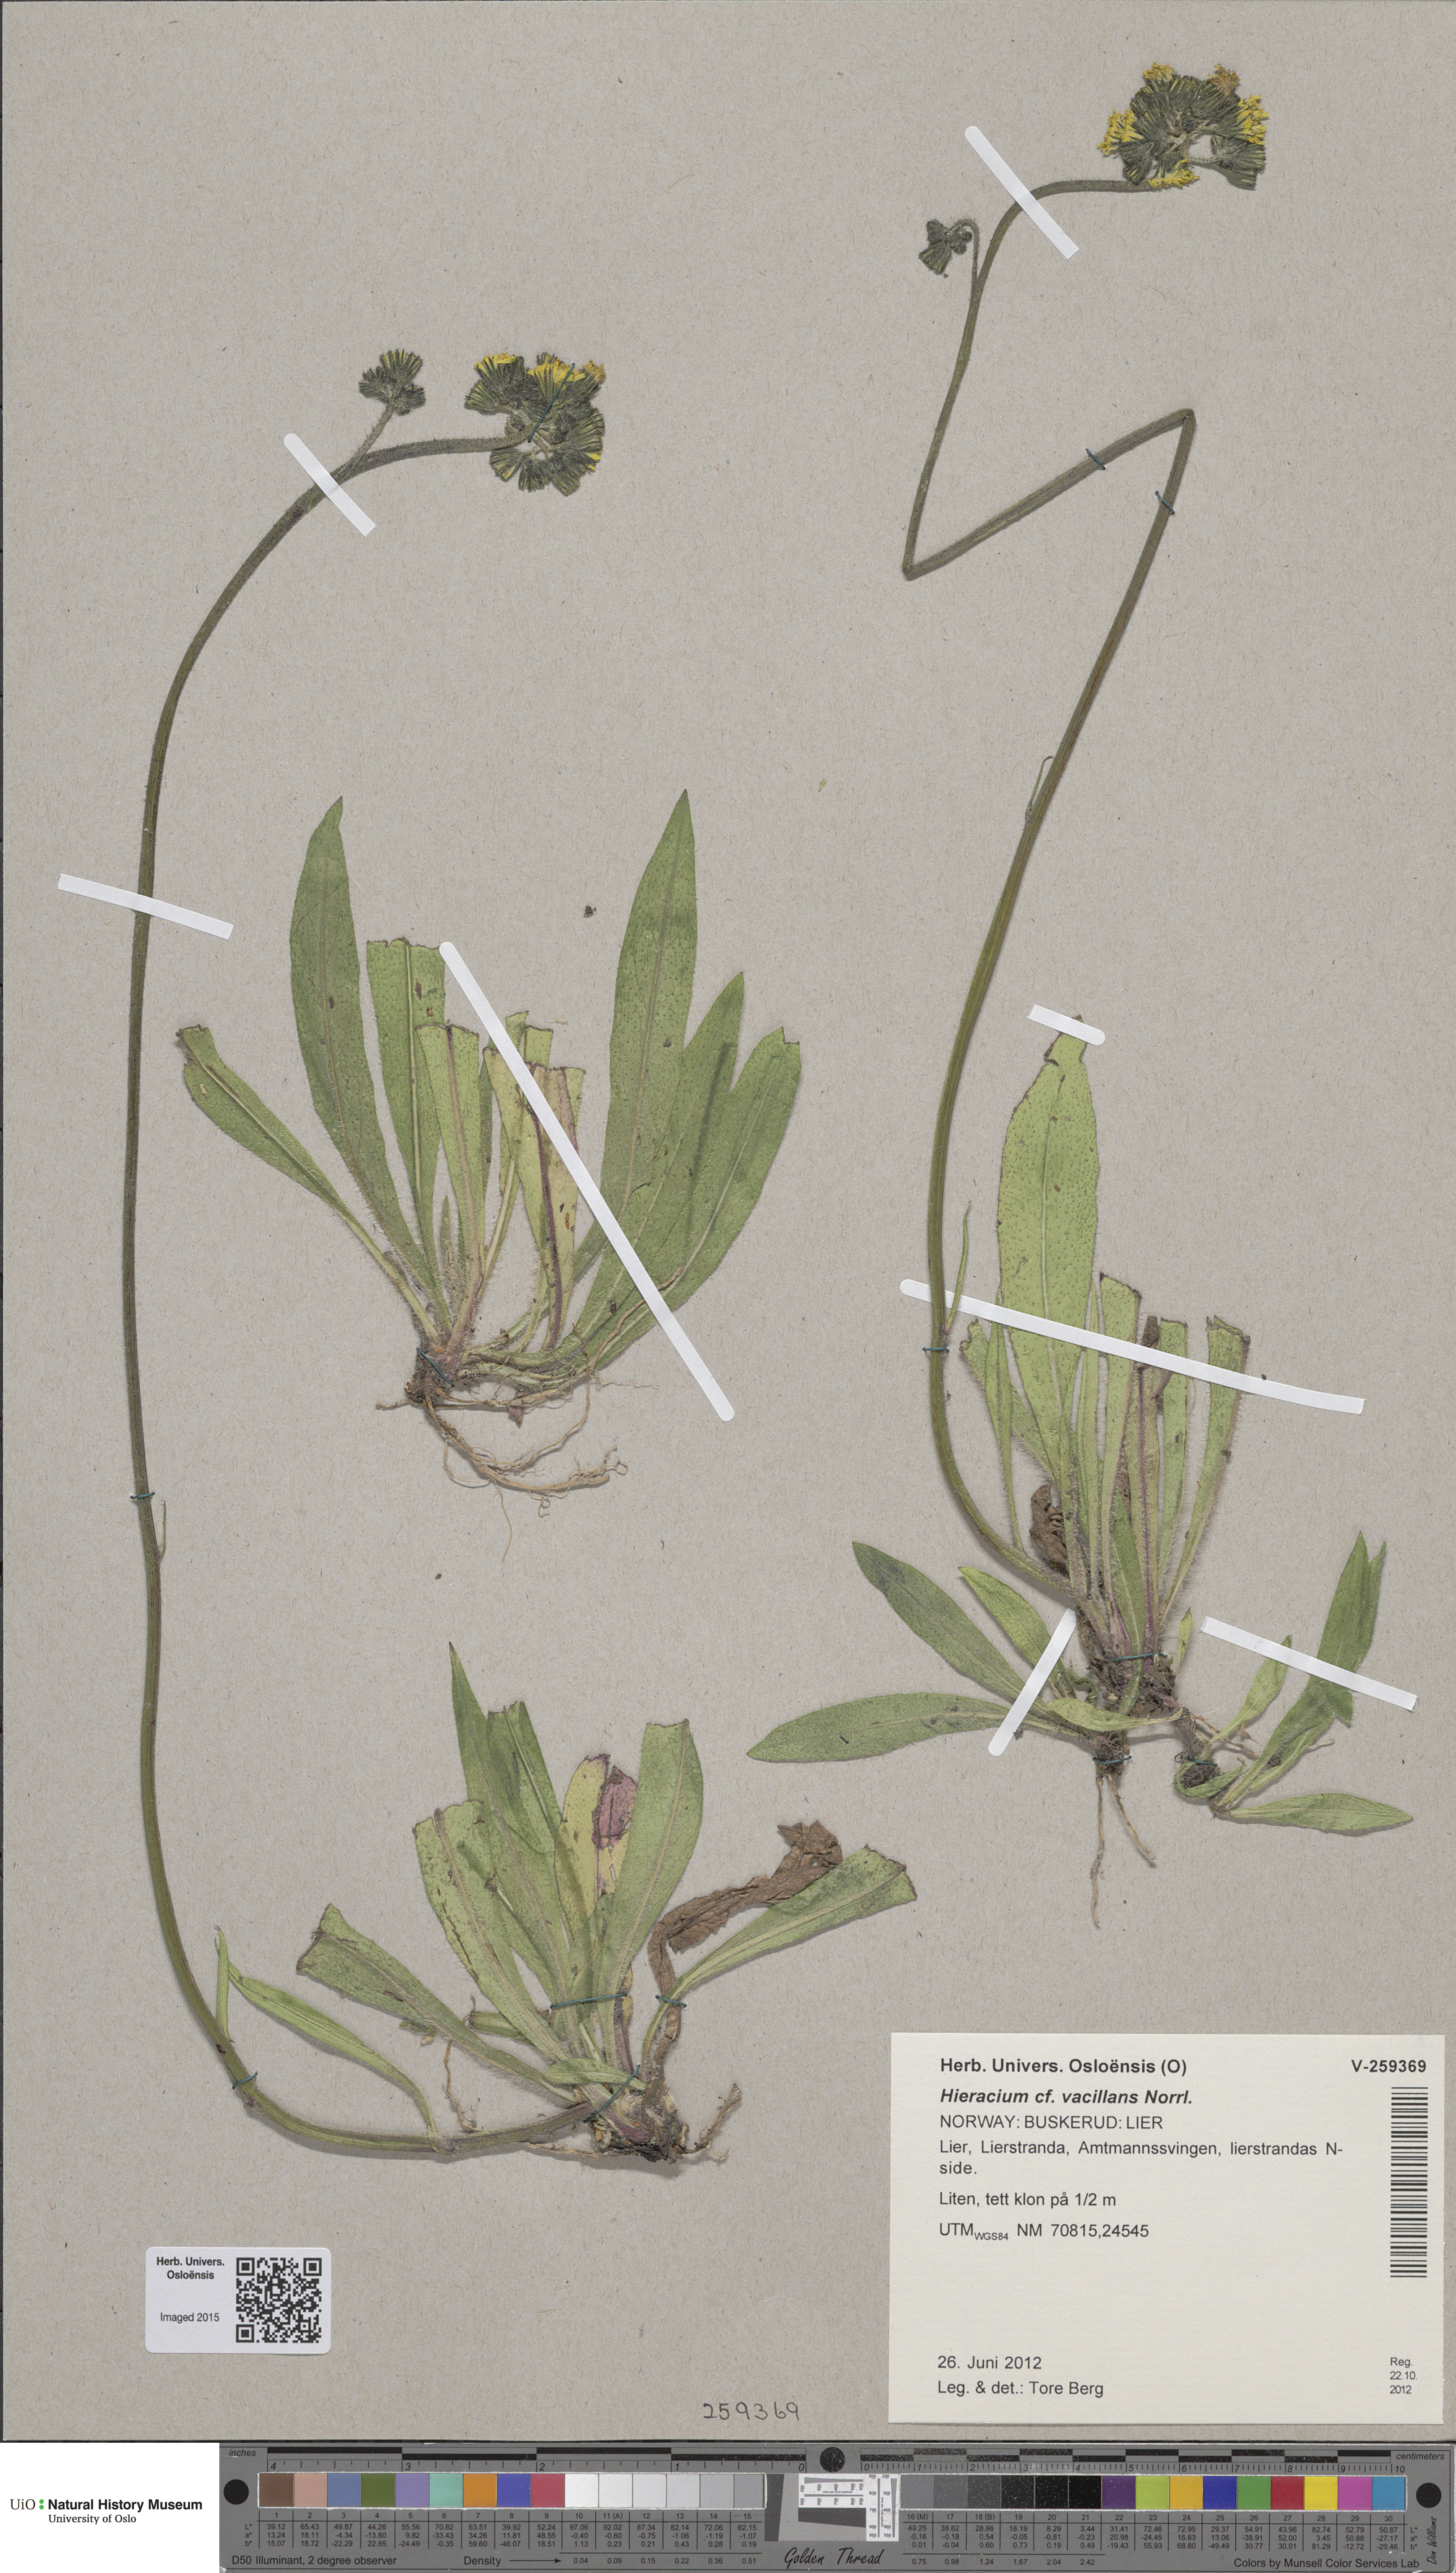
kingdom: Plantae
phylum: Tracheophyta
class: Magnoliopsida
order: Asterales
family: Asteraceae
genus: Pilosella
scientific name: Pilosella glomerata
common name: Queen devil hawkweed
